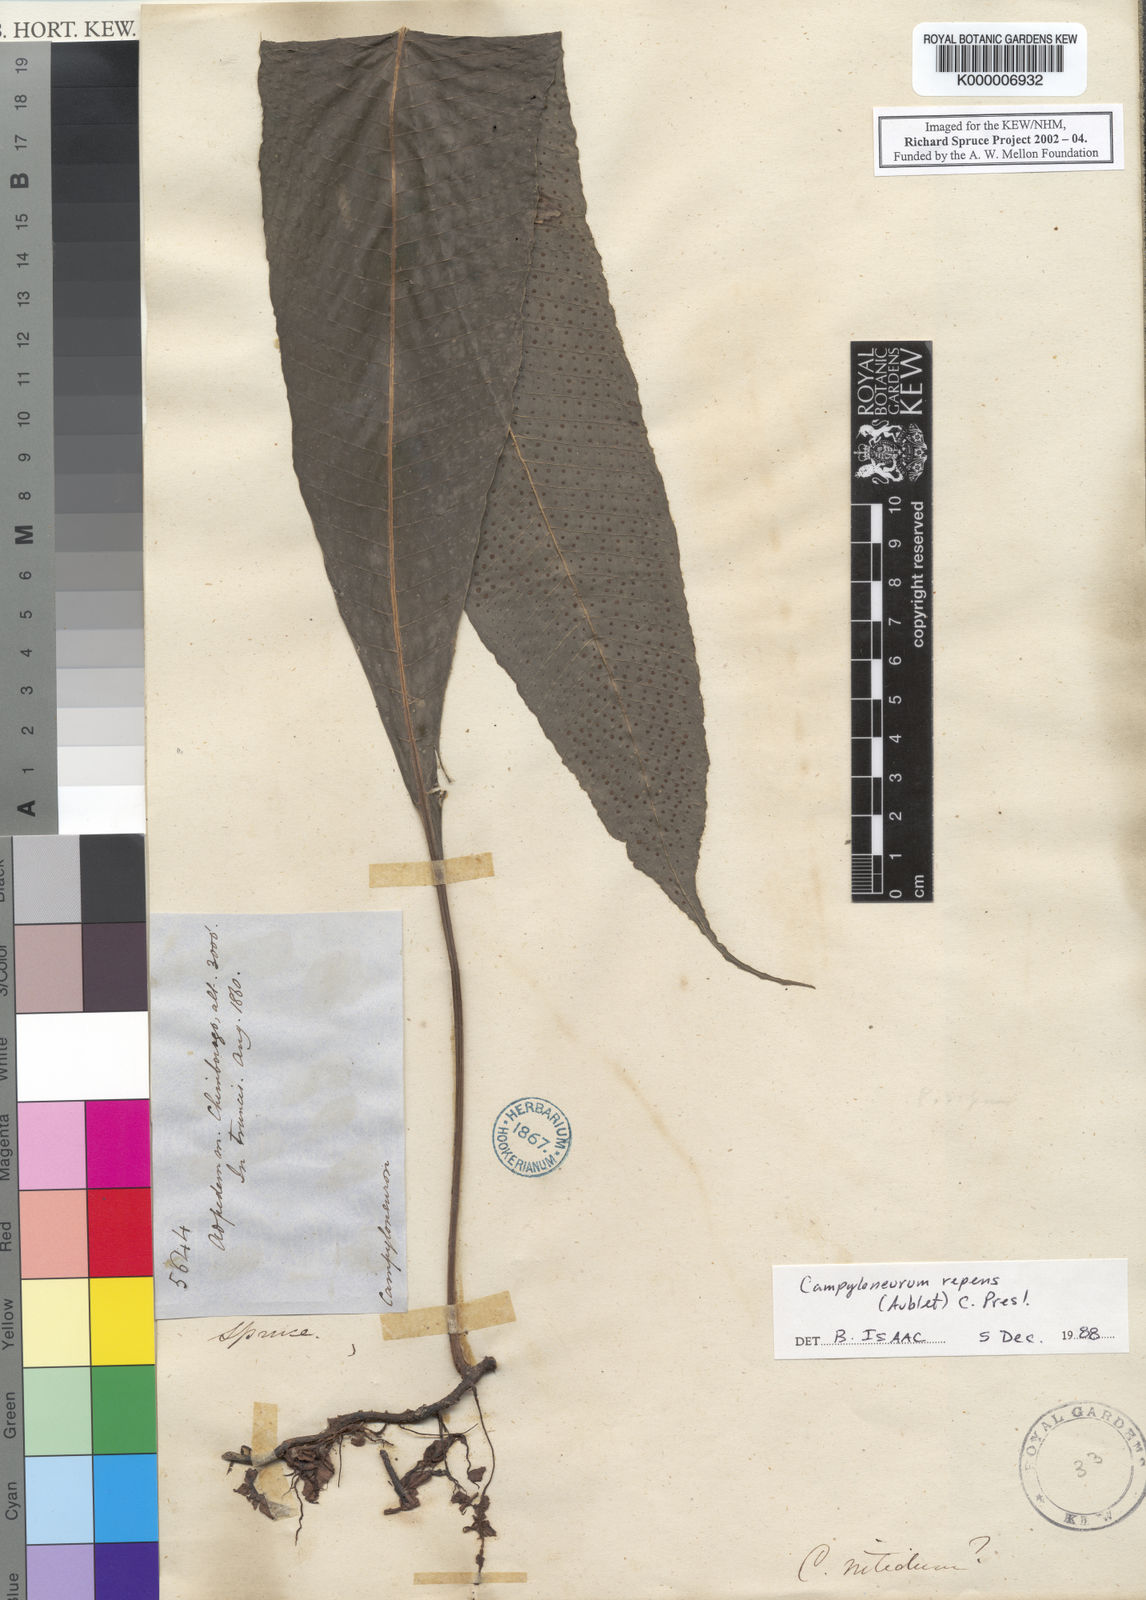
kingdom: Plantae
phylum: Tracheophyta
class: Polypodiopsida
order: Polypodiales
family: Polypodiaceae
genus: Campyloneurum
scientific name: Campyloneurum repens
